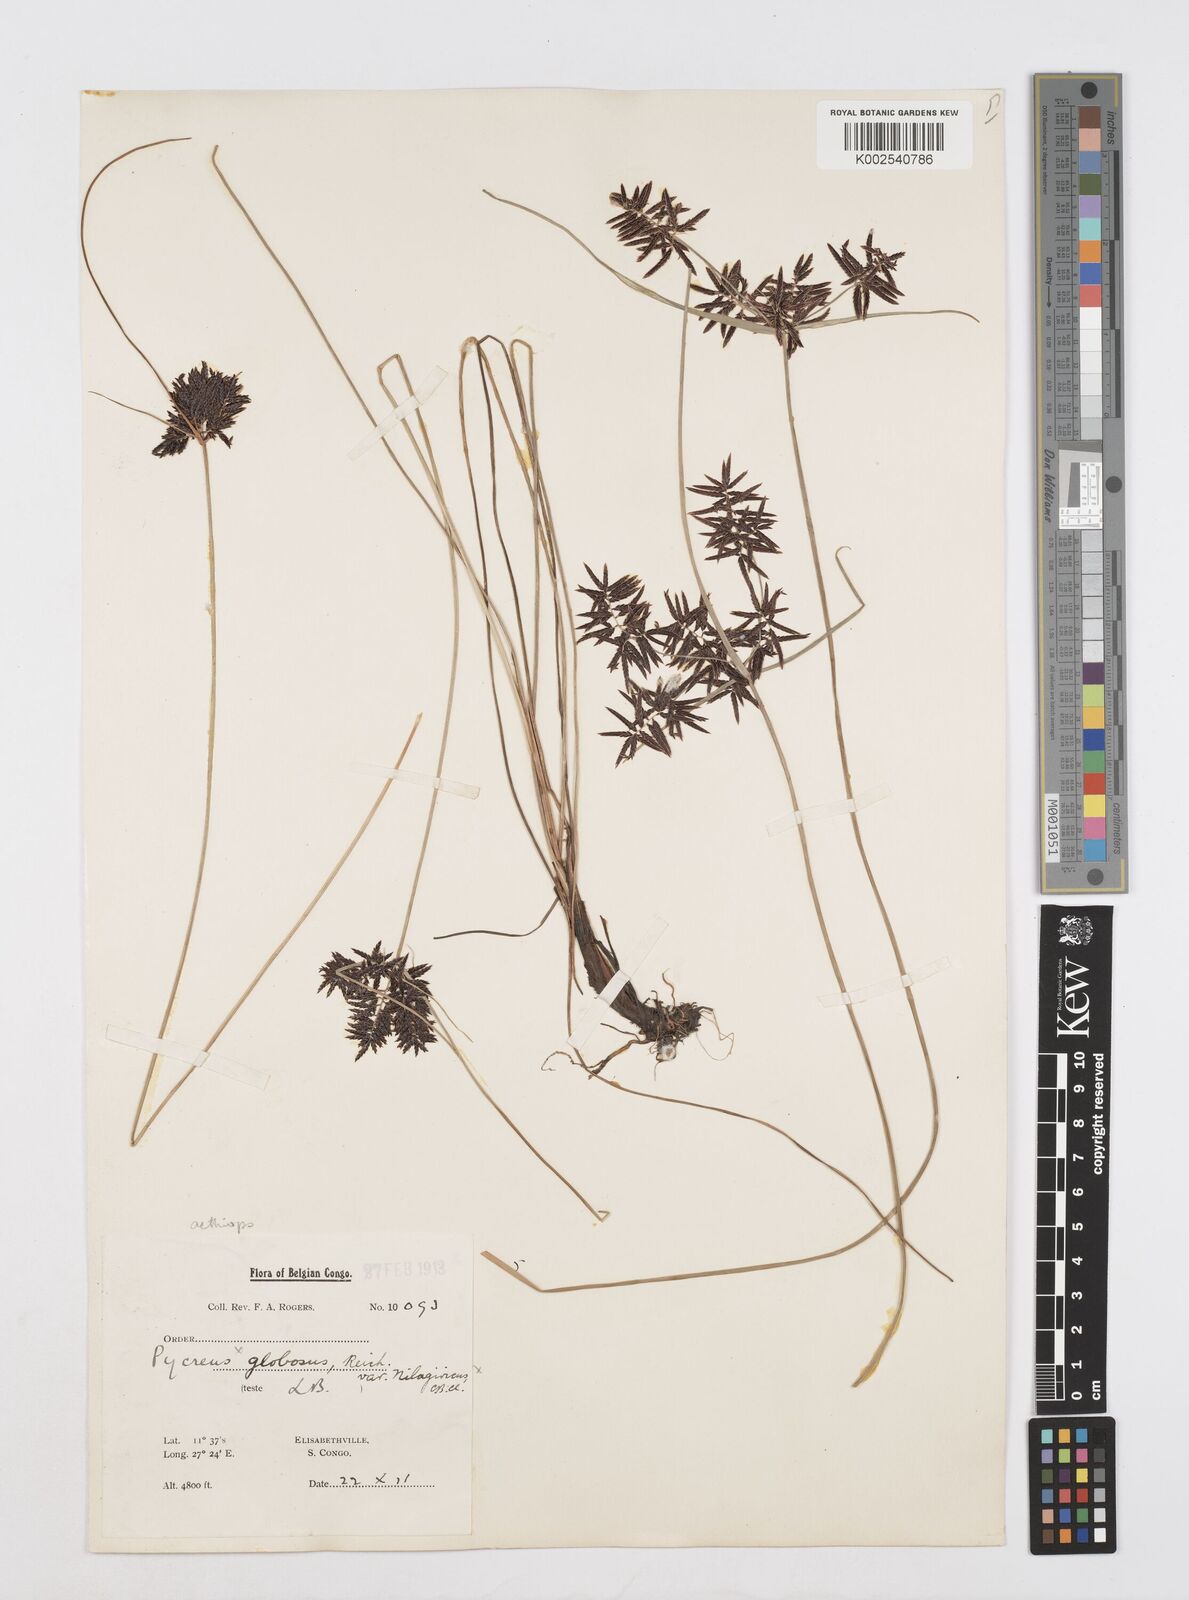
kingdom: Plantae
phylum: Tracheophyta
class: Liliopsida
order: Poales
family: Cyperaceae
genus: Cyperus
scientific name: Cyperus aethiops
